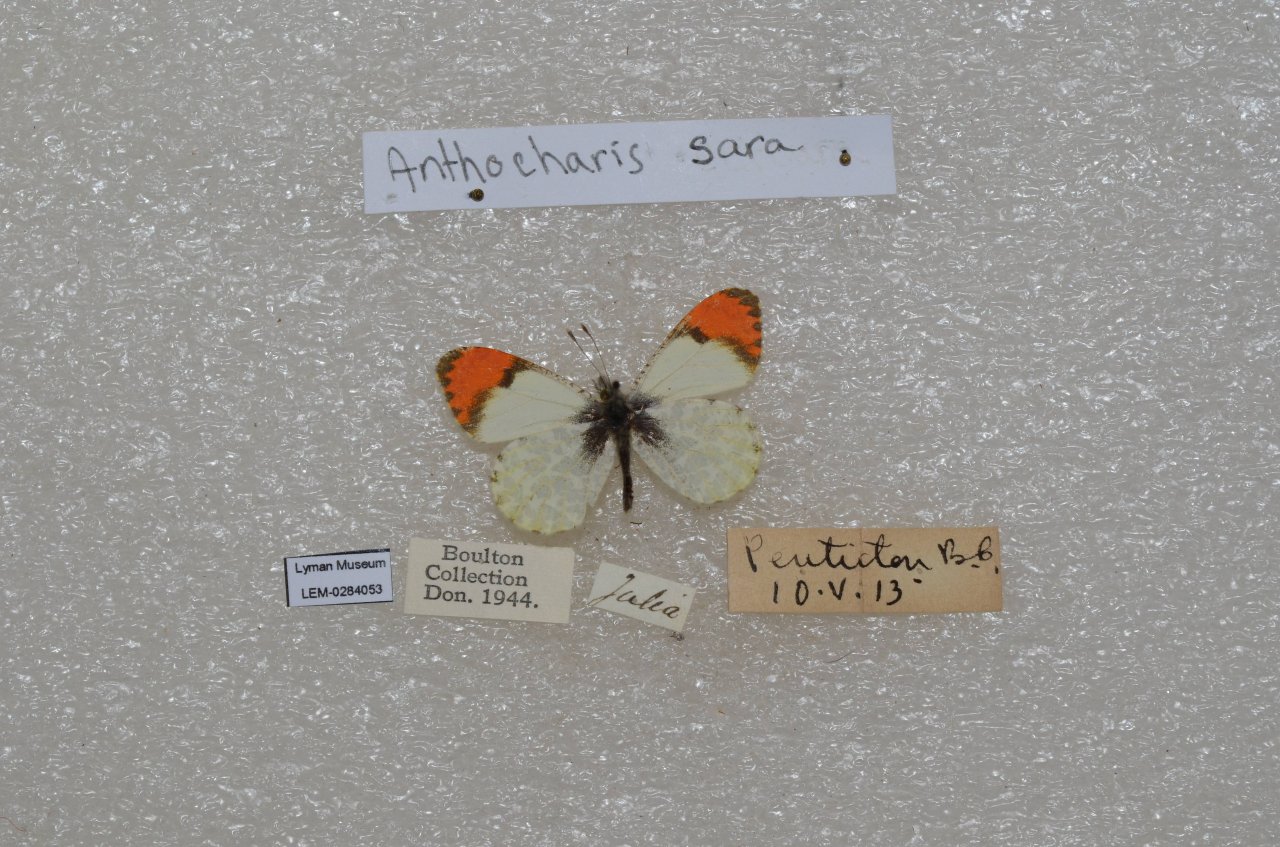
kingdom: Animalia
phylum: Arthropoda
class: Insecta
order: Lepidoptera
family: Pieridae
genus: Anthocharis
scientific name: Anthocharis sara
